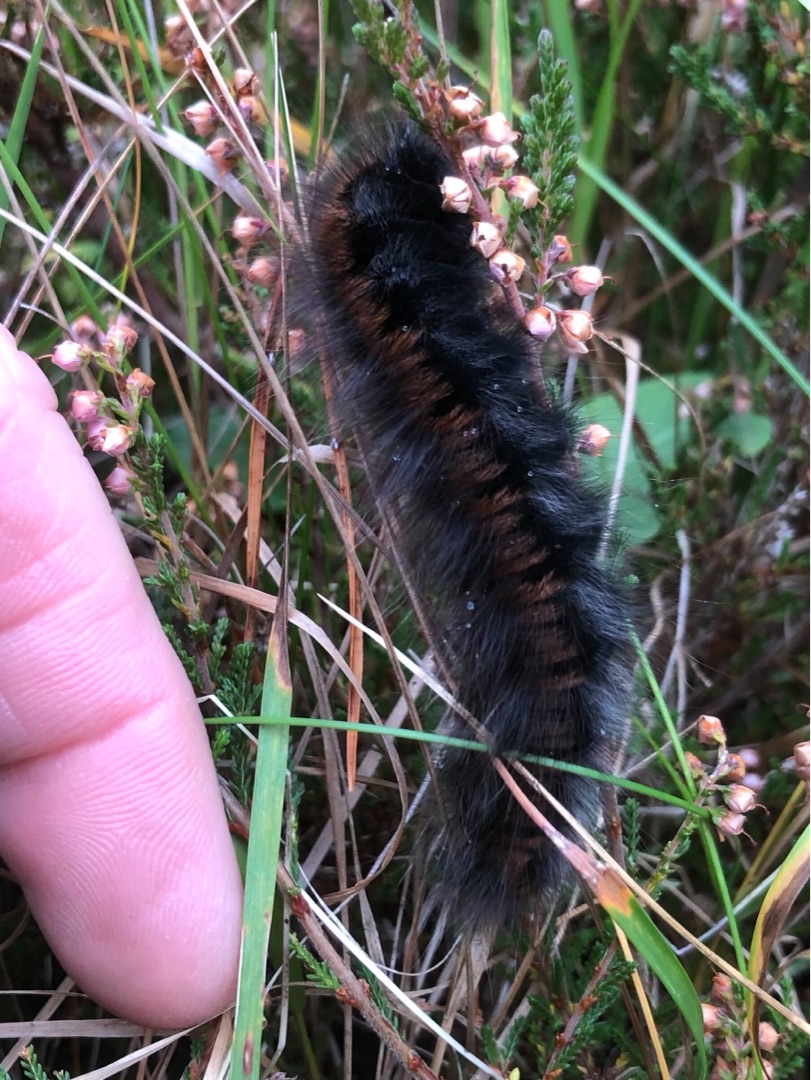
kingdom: Animalia
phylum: Arthropoda
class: Insecta
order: Lepidoptera
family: Lasiocampidae
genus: Macrothylacia
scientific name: Macrothylacia rubi
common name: Brombærspinder
